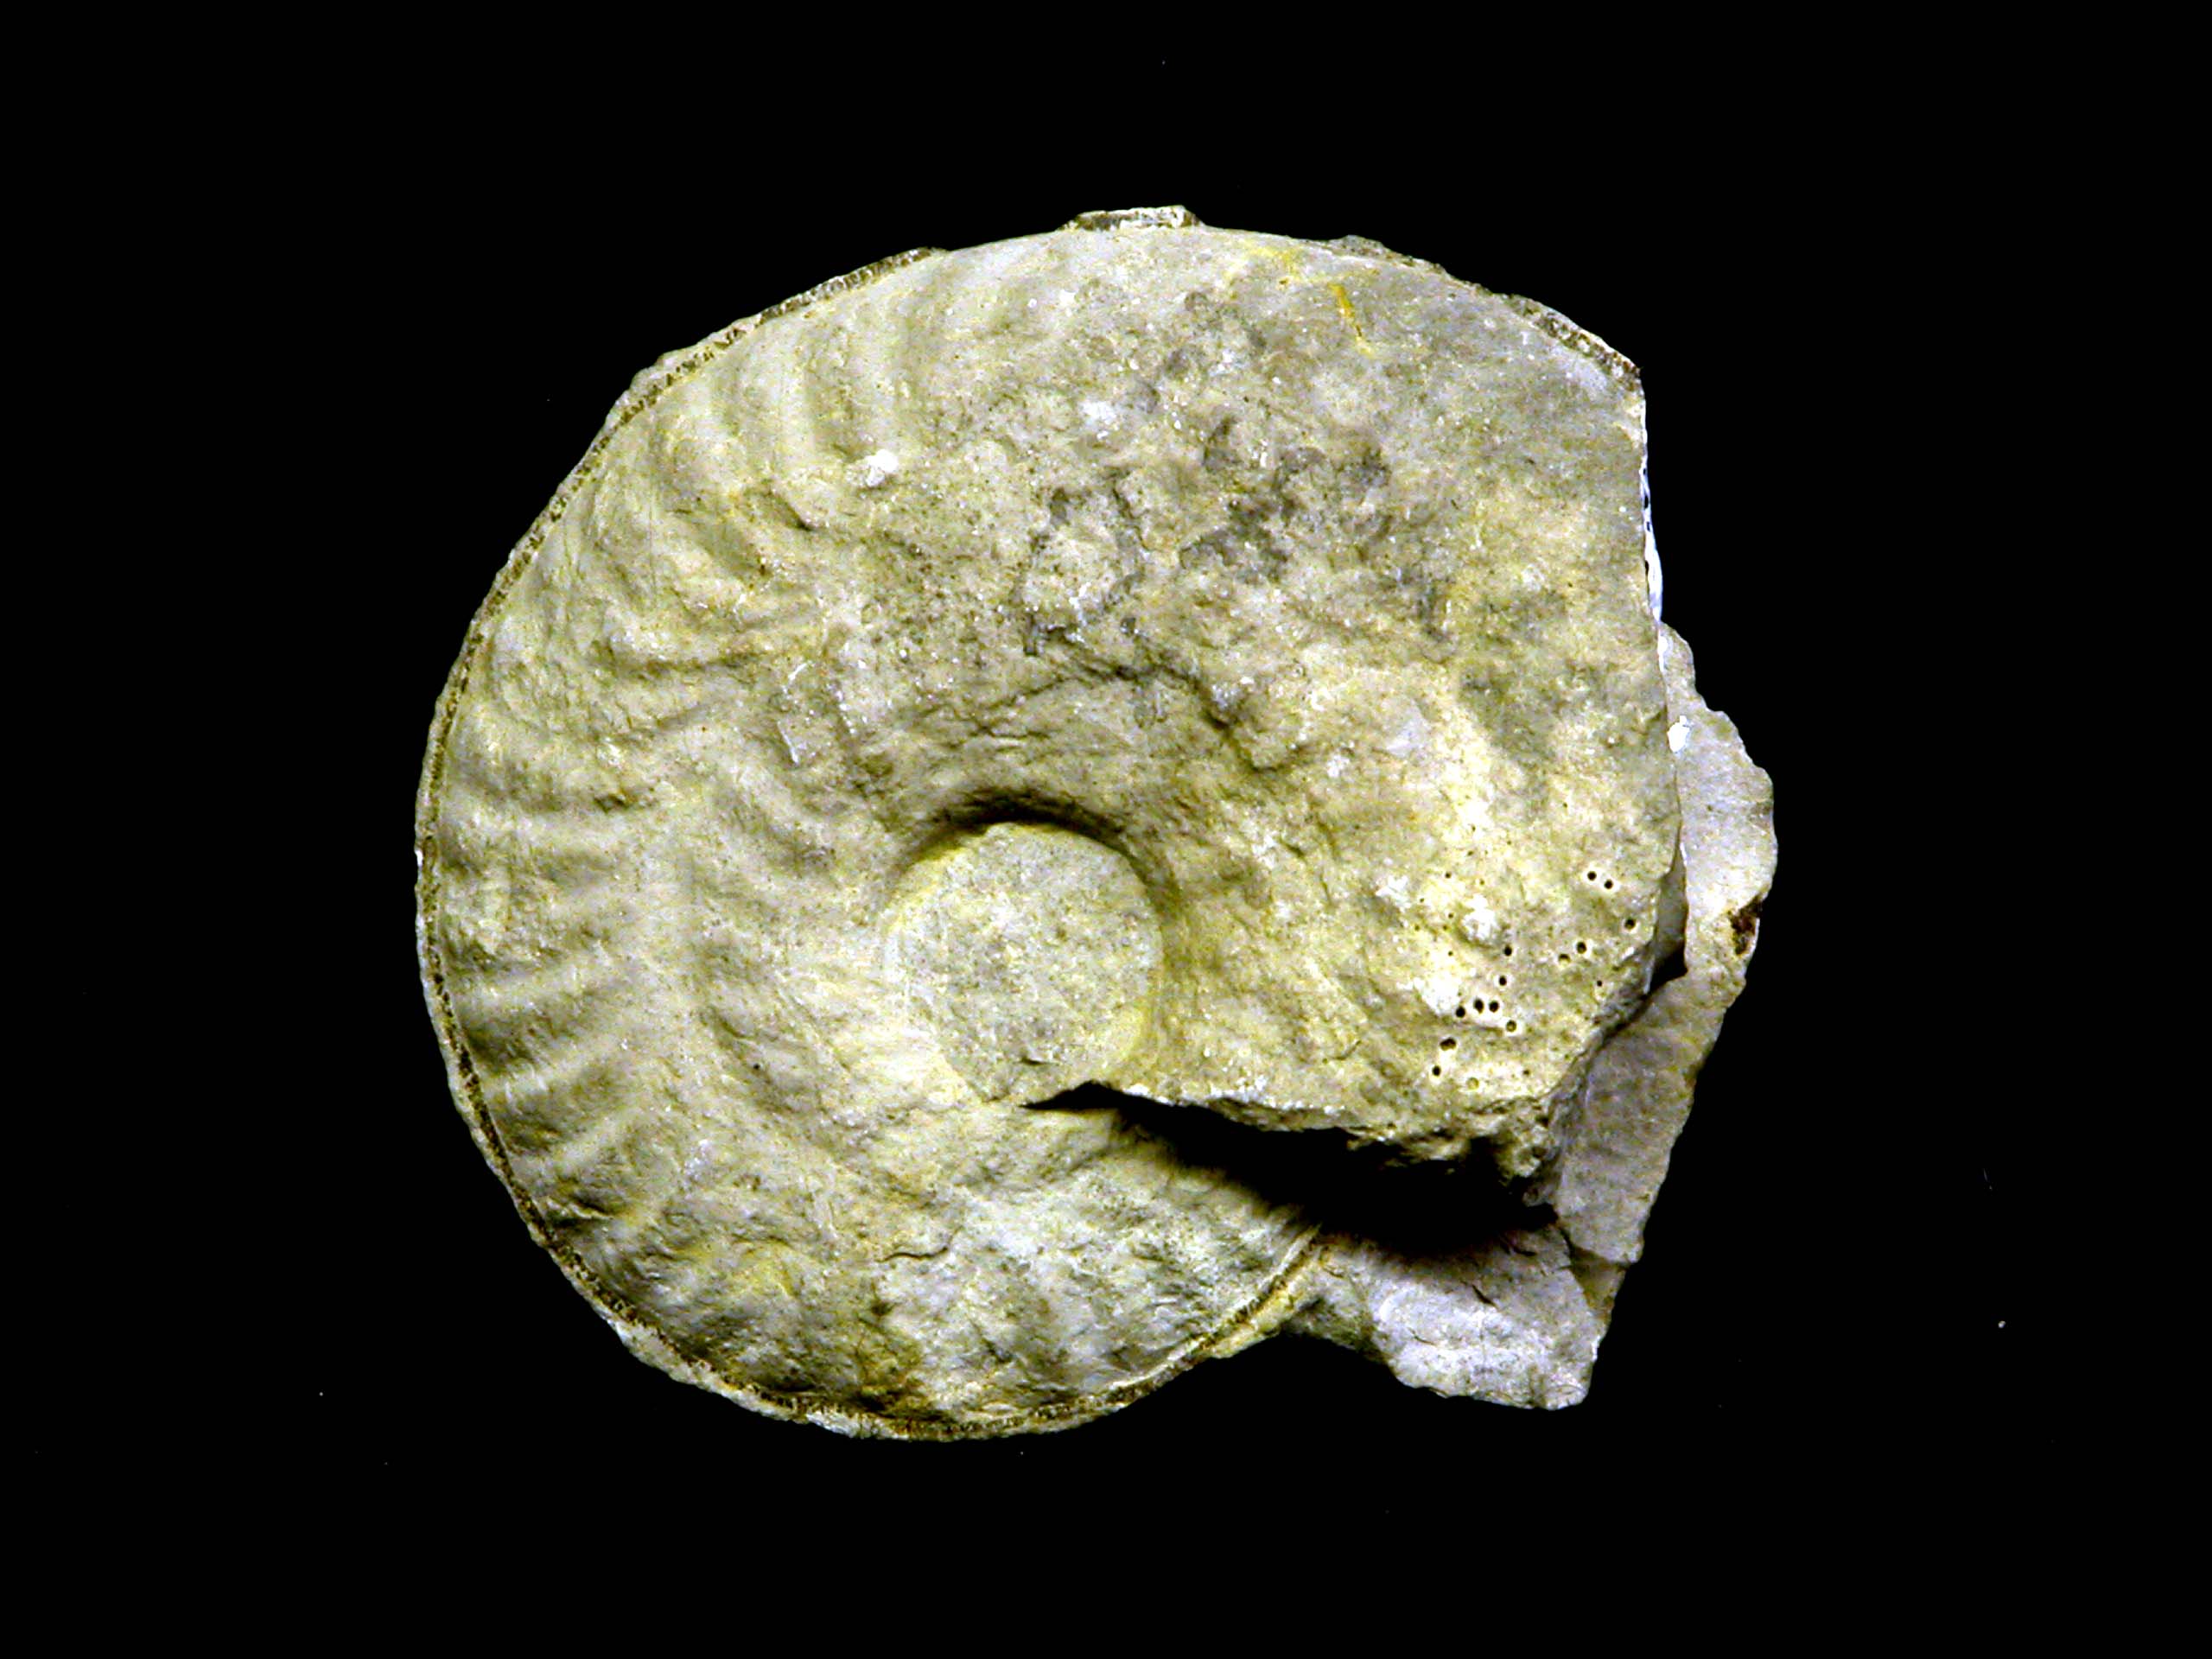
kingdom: Animalia
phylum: Mollusca
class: Cephalopoda
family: Oppeliidae
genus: Ochetoceras
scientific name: Ochetoceras hispidum
